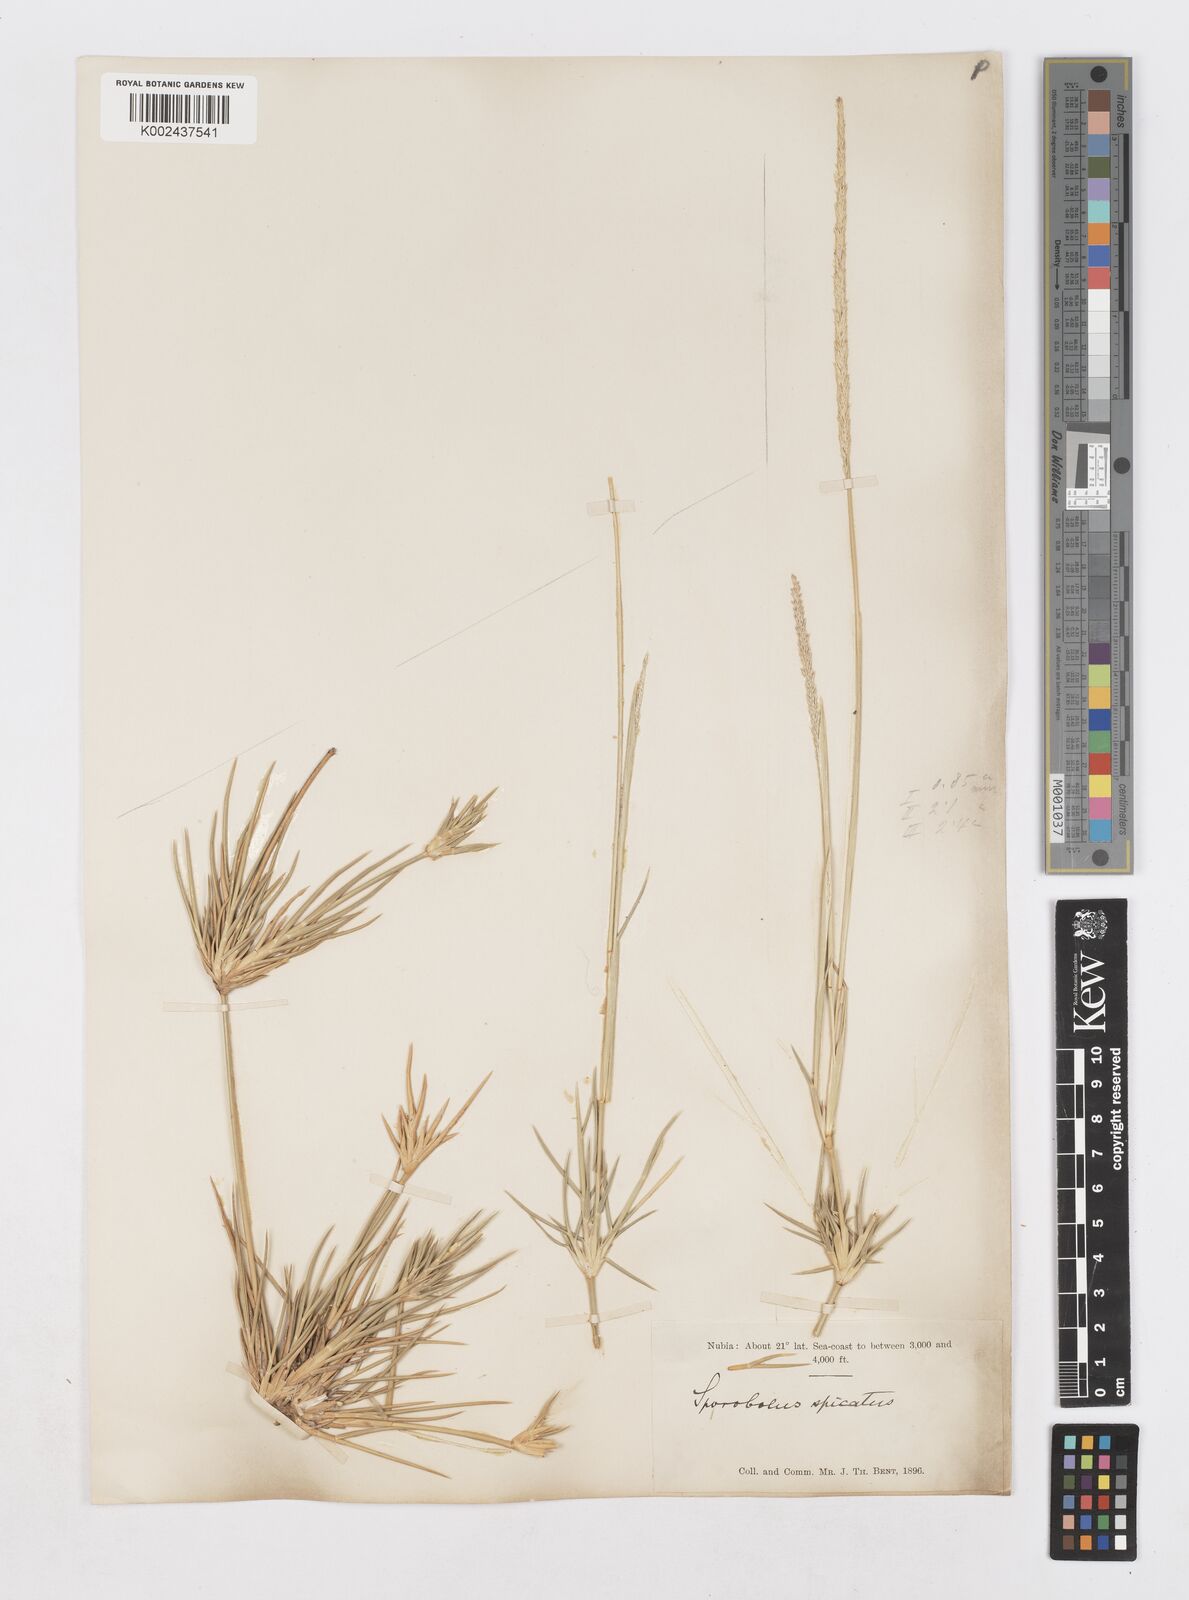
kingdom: Plantae
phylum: Tracheophyta
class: Liliopsida
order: Poales
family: Poaceae
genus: Sporobolus
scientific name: Sporobolus spicatus
